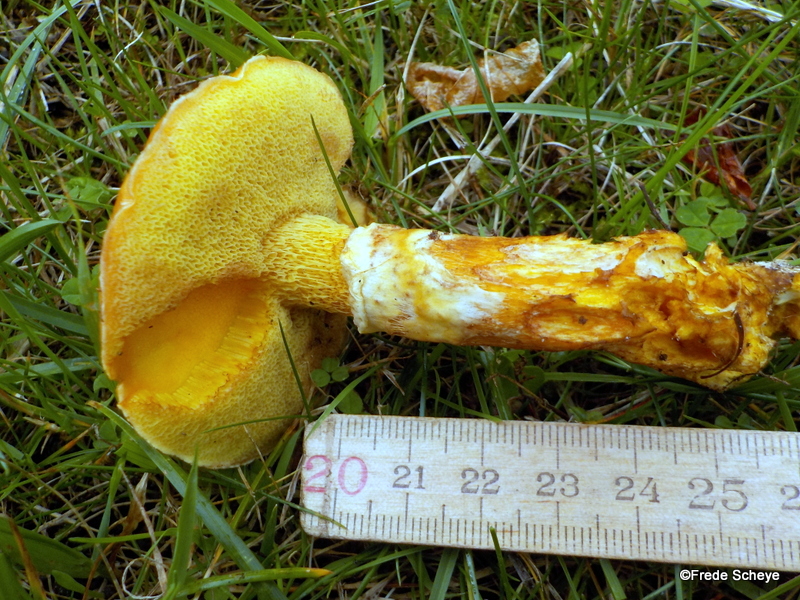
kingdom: Fungi
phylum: Basidiomycota
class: Agaricomycetes
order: Boletales
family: Suillaceae
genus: Suillus
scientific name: Suillus grevillei
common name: lærke-slimrørhat
